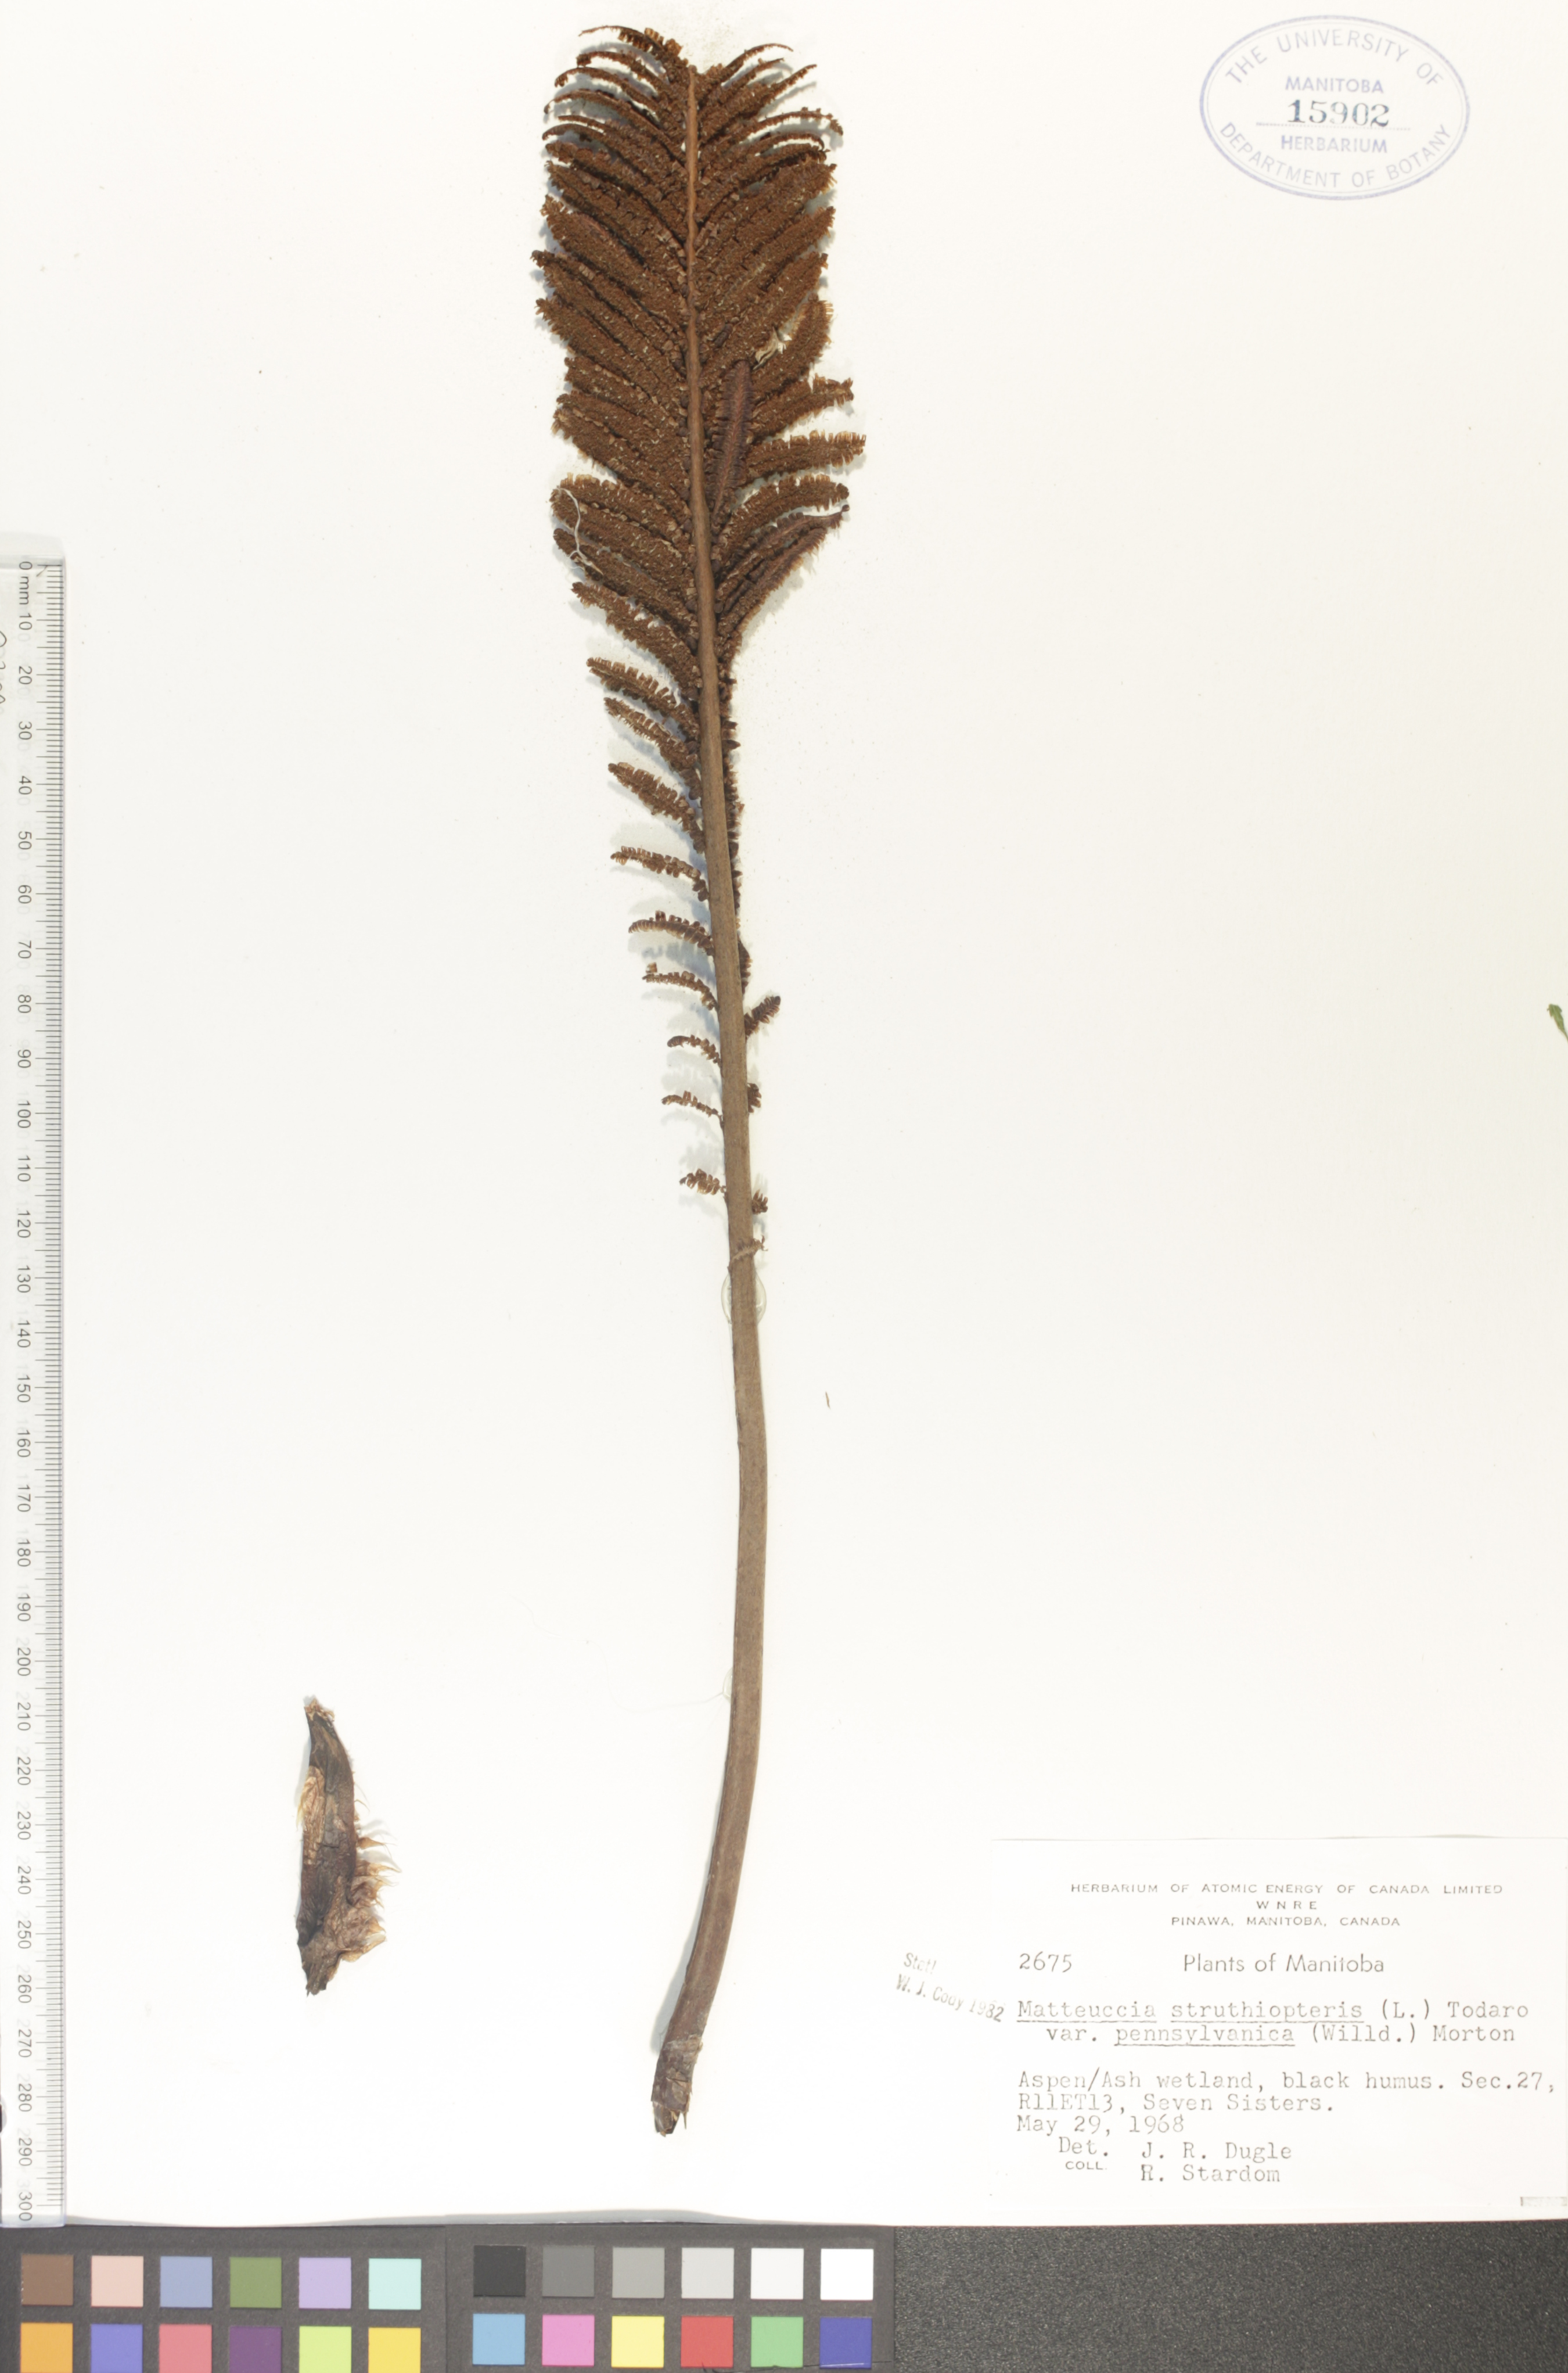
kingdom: Plantae
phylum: Tracheophyta
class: Polypodiopsida
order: Polypodiales
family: Onocleaceae
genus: Matteuccia
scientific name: Matteuccia pensylvanica
